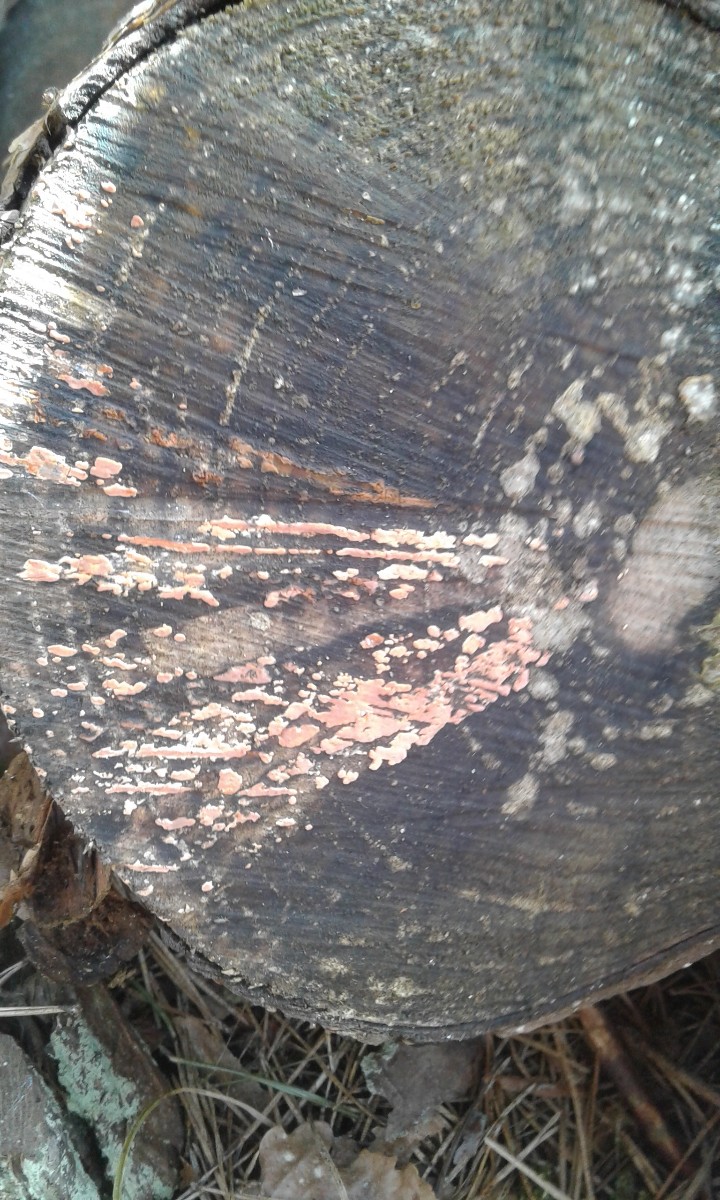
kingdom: Fungi
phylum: Basidiomycota
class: Agaricomycetes
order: Russulales
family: Peniophoraceae
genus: Peniophora
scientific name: Peniophora incarnata
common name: laksefarvet voksskind
